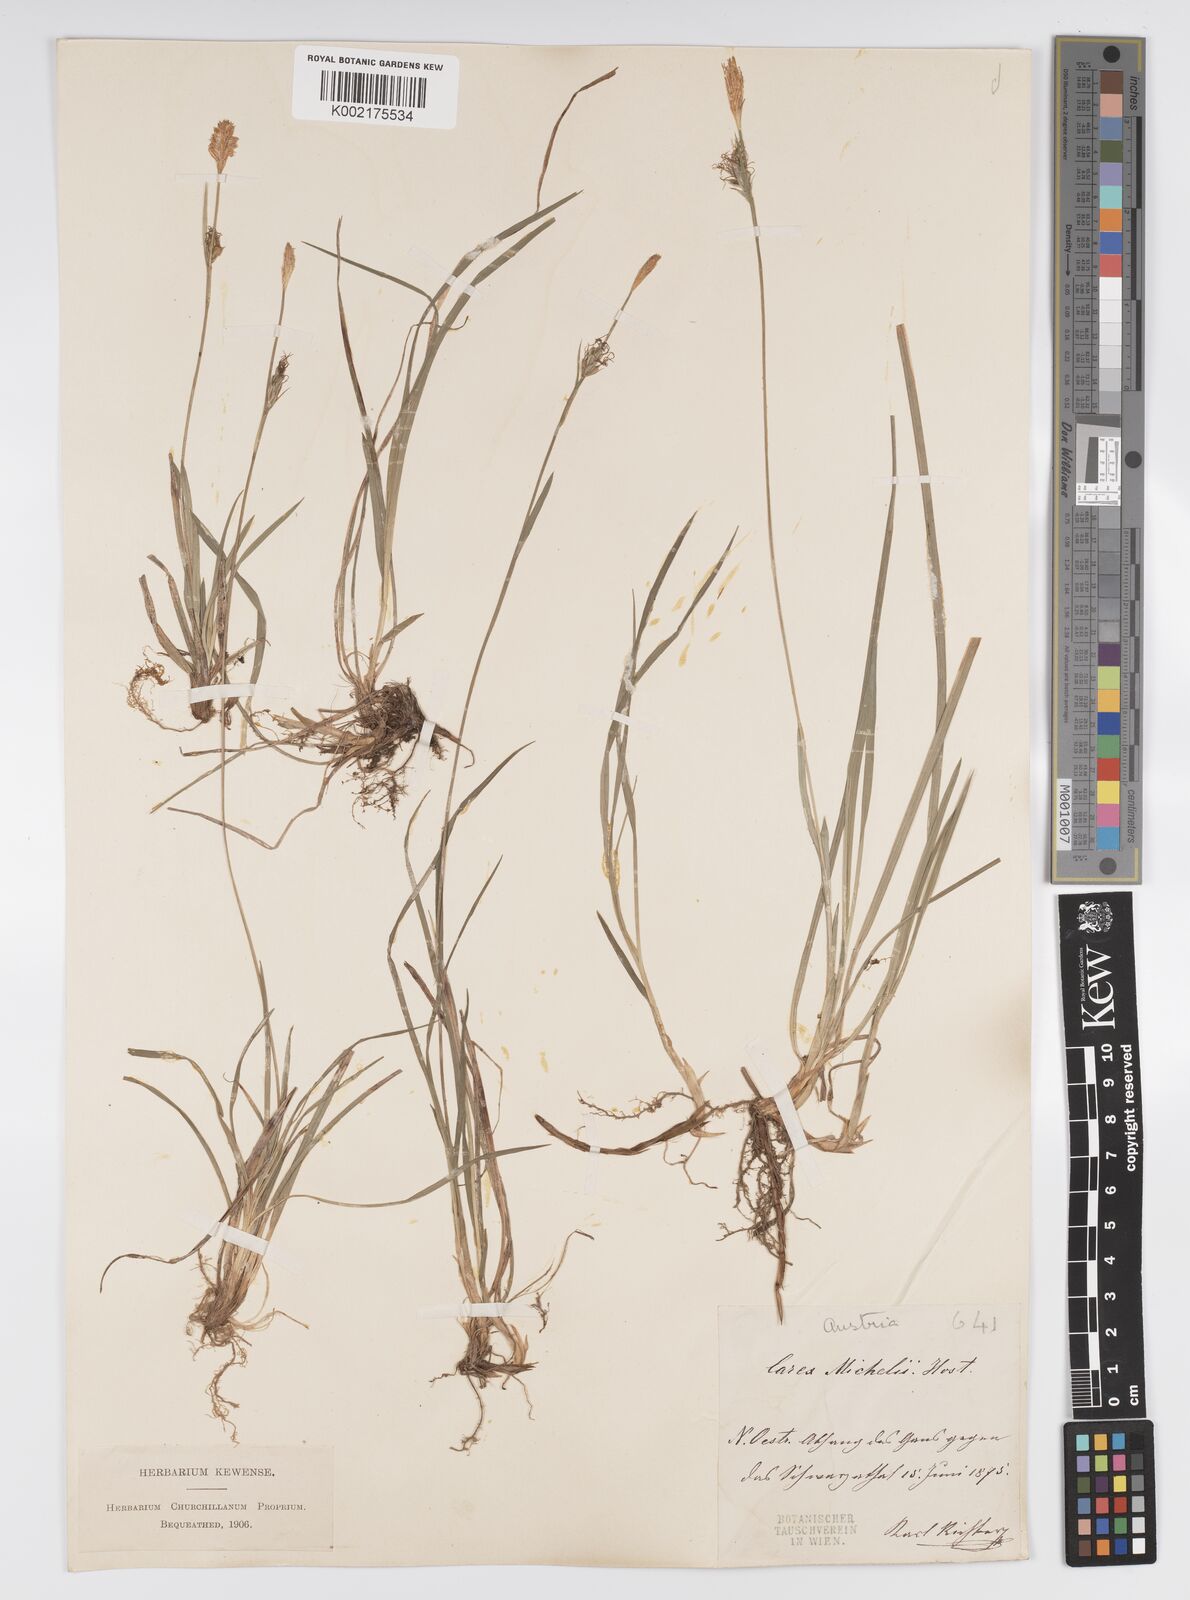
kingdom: Plantae
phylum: Tracheophyta
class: Liliopsida
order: Poales
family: Cyperaceae
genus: Carex
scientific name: Carex michelii
